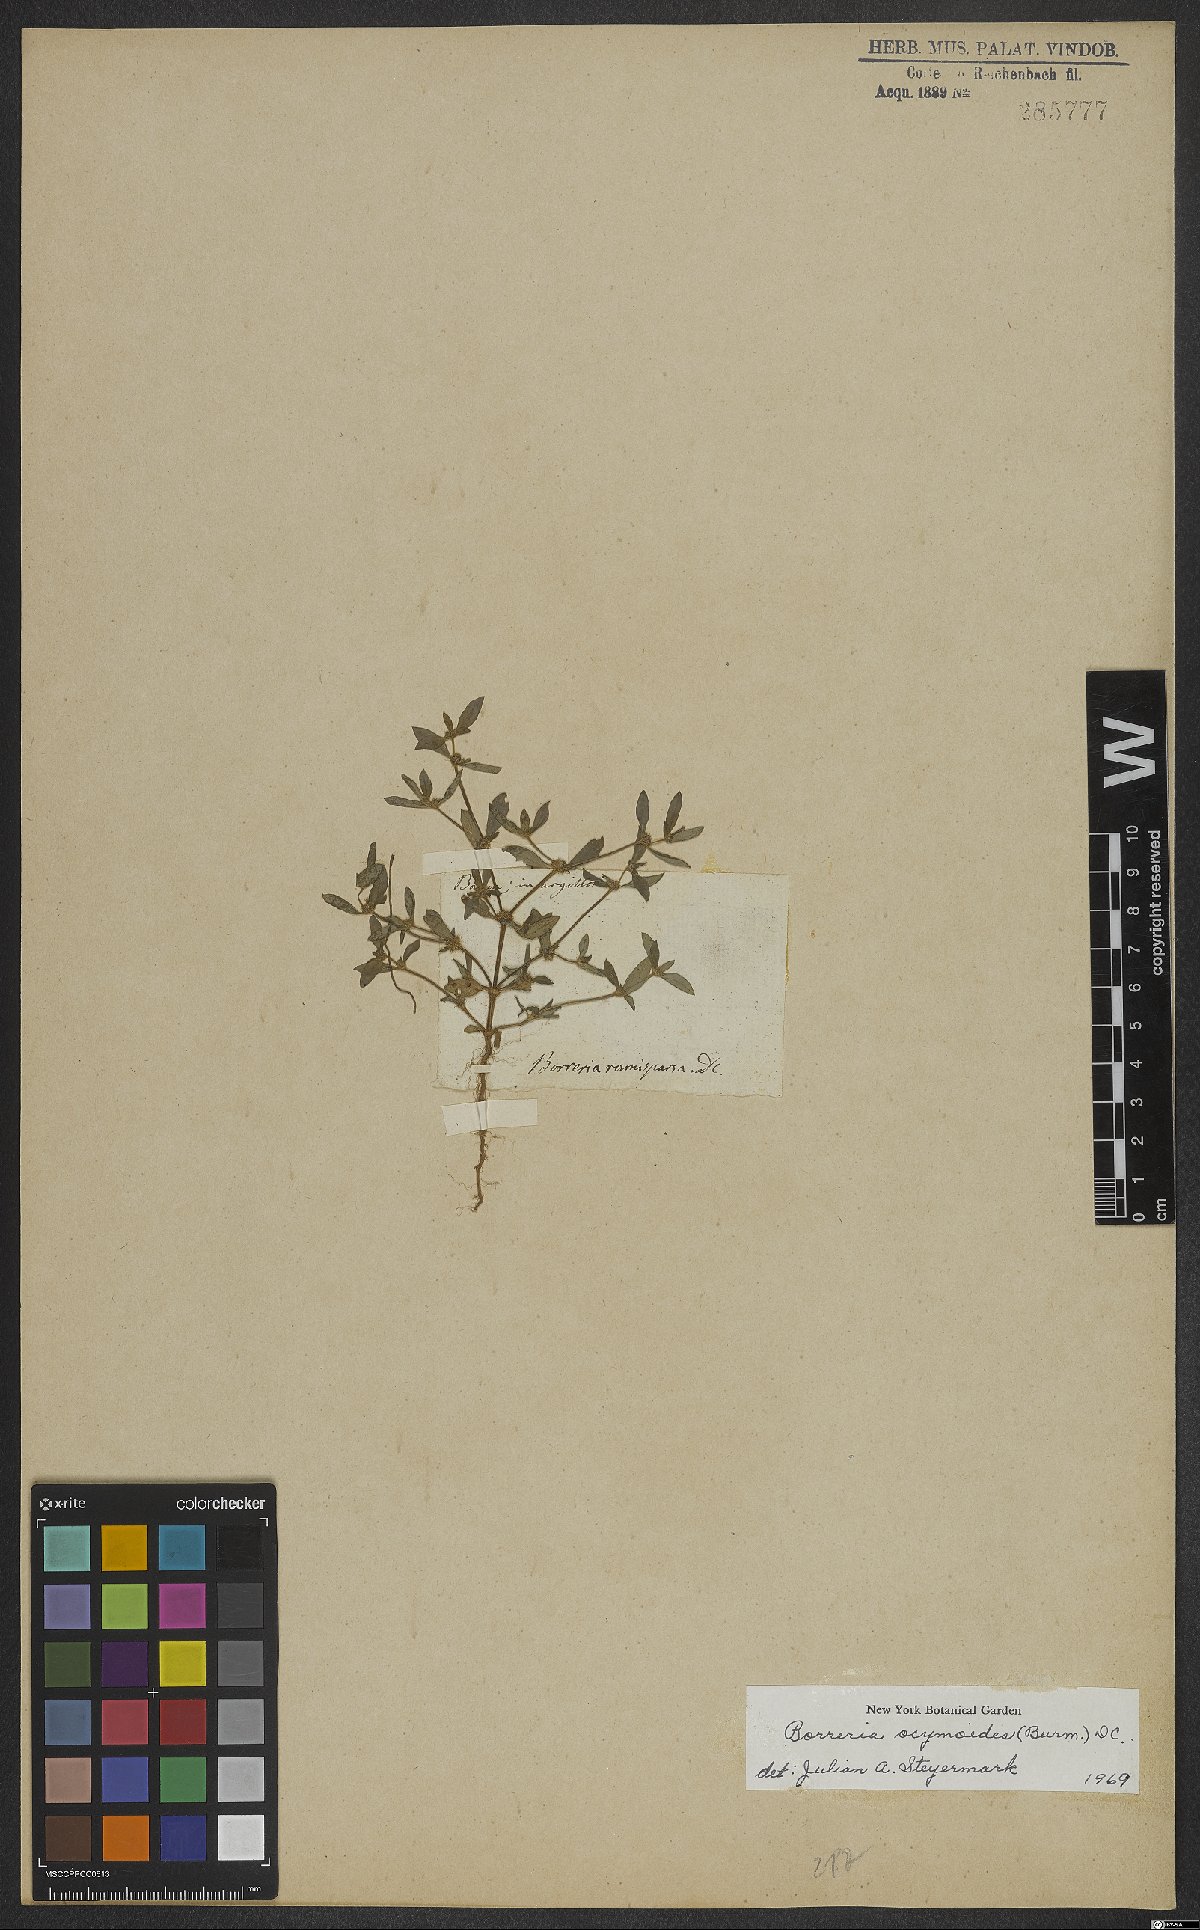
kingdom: Plantae
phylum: Tracheophyta
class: Magnoliopsida
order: Gentianales
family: Rubiaceae
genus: Spermacoce
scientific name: Spermacoce ocymoides
